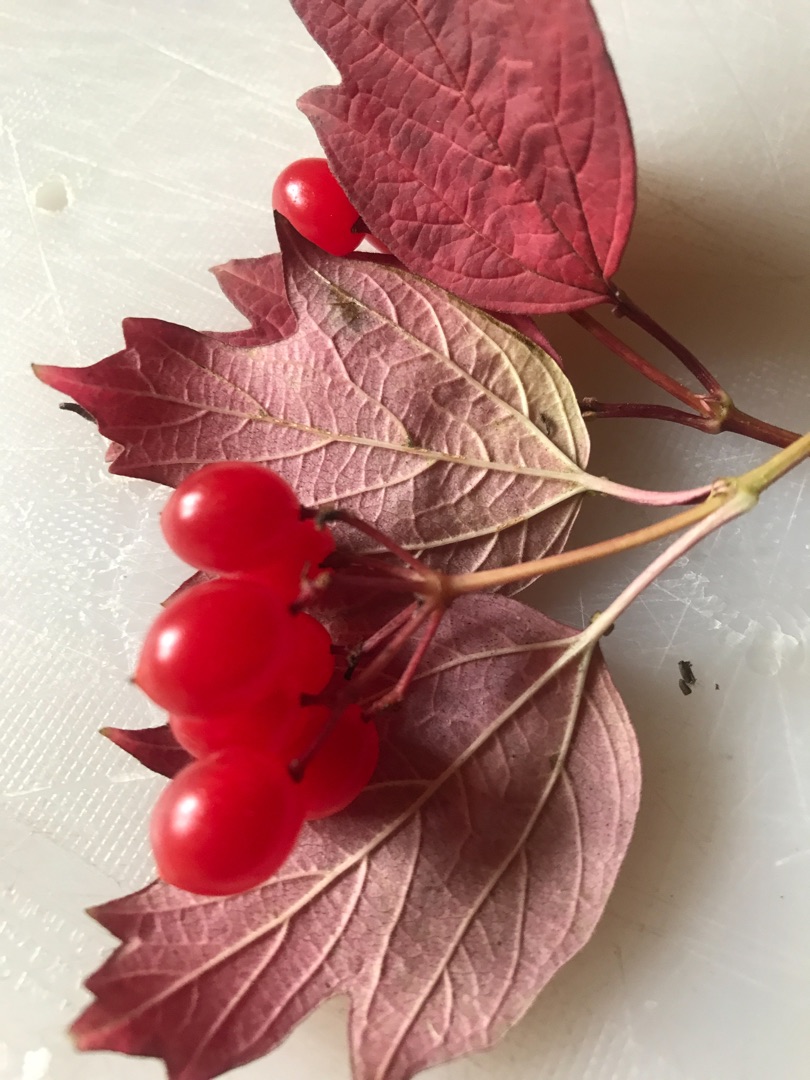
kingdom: Plantae
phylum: Tracheophyta
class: Magnoliopsida
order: Dipsacales
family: Viburnaceae
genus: Viburnum
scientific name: Viburnum opulus
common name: Kvalkved
